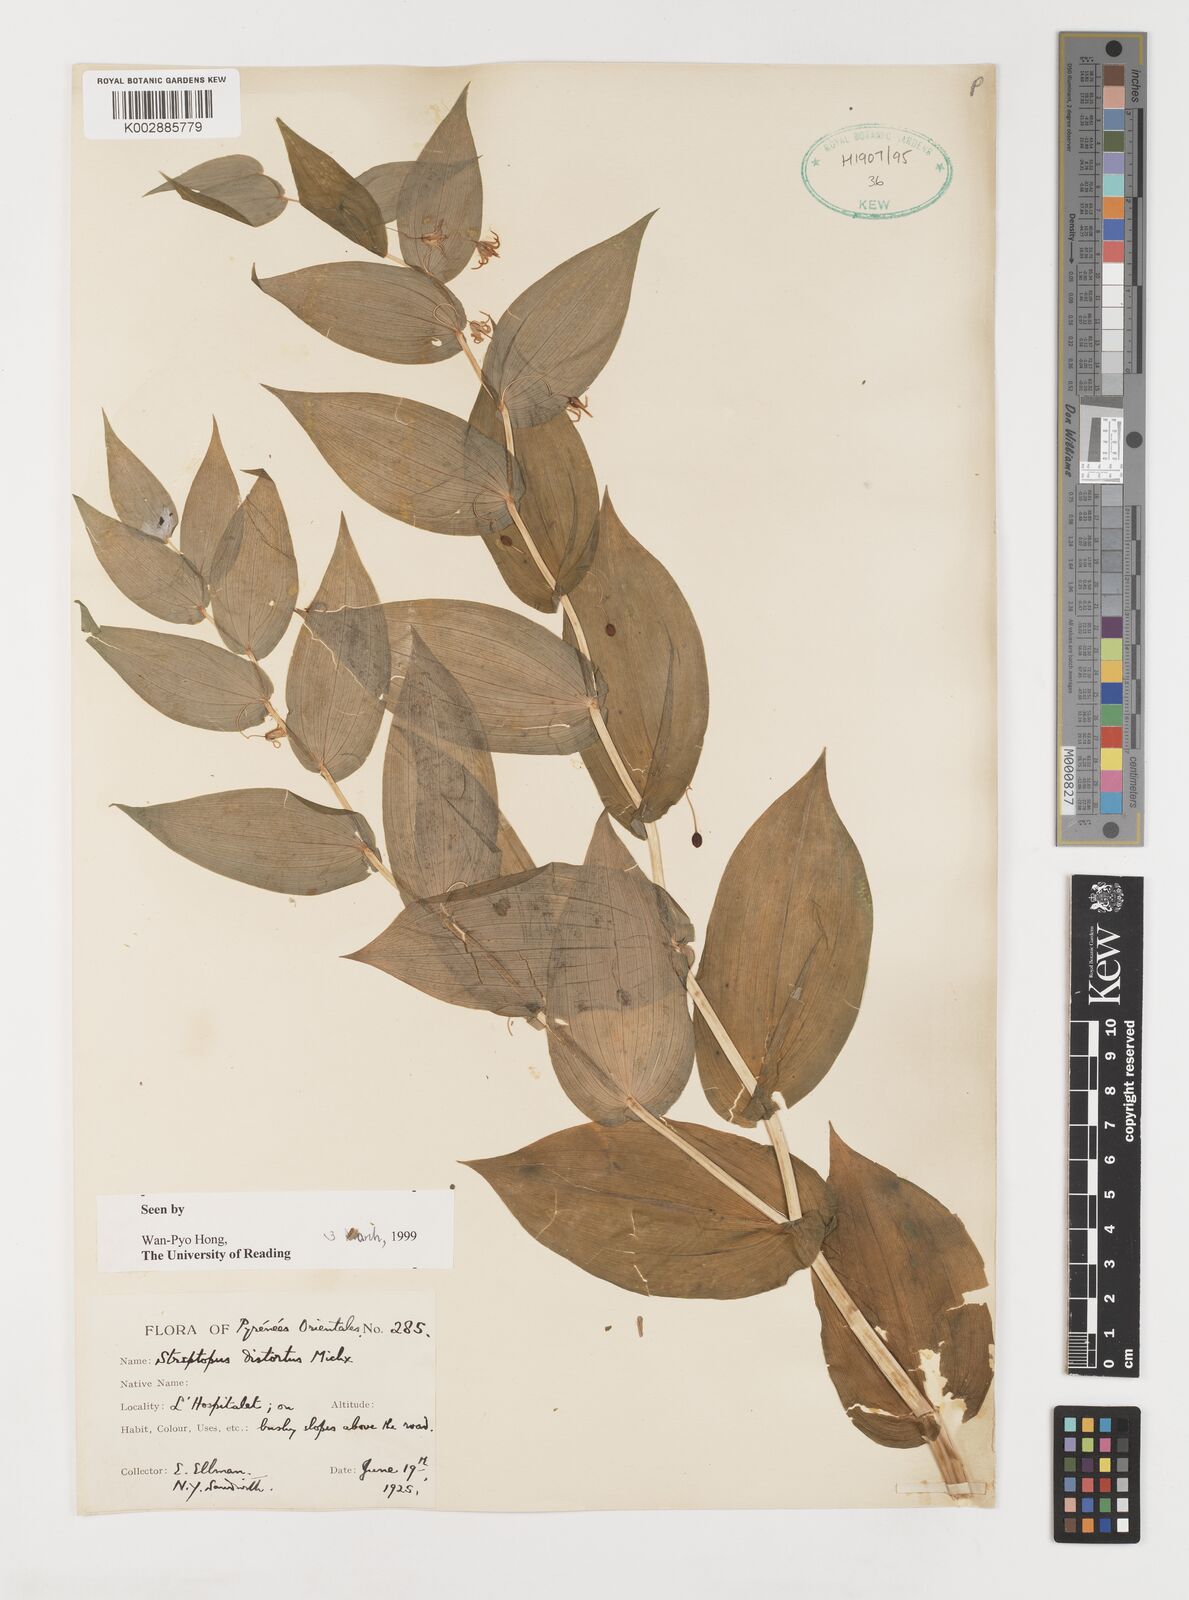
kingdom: Plantae
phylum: Tracheophyta
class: Liliopsida
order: Liliales
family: Liliaceae
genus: Streptopus
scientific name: Streptopus amplexifolius
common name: Clasp twisted stalk
